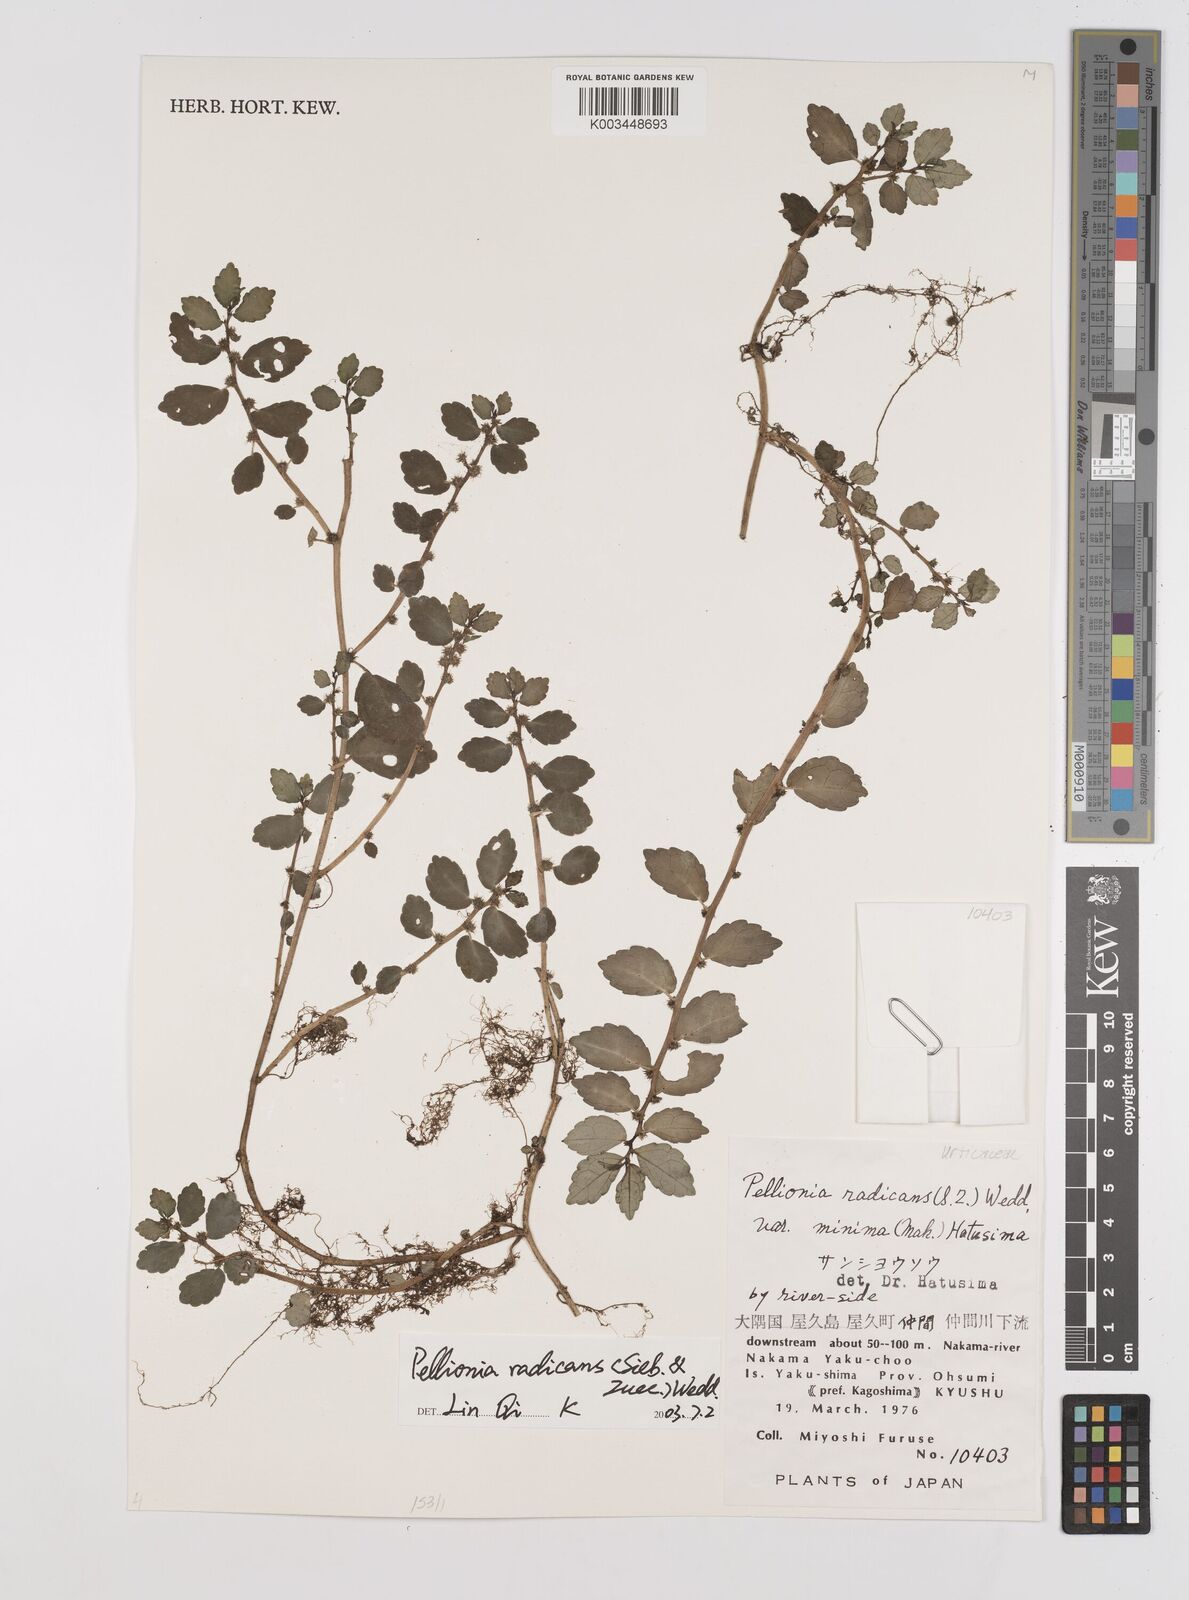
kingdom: Plantae
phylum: Tracheophyta
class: Magnoliopsida
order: Rosales
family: Urticaceae
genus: Elatostema
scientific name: Elatostema radicans
